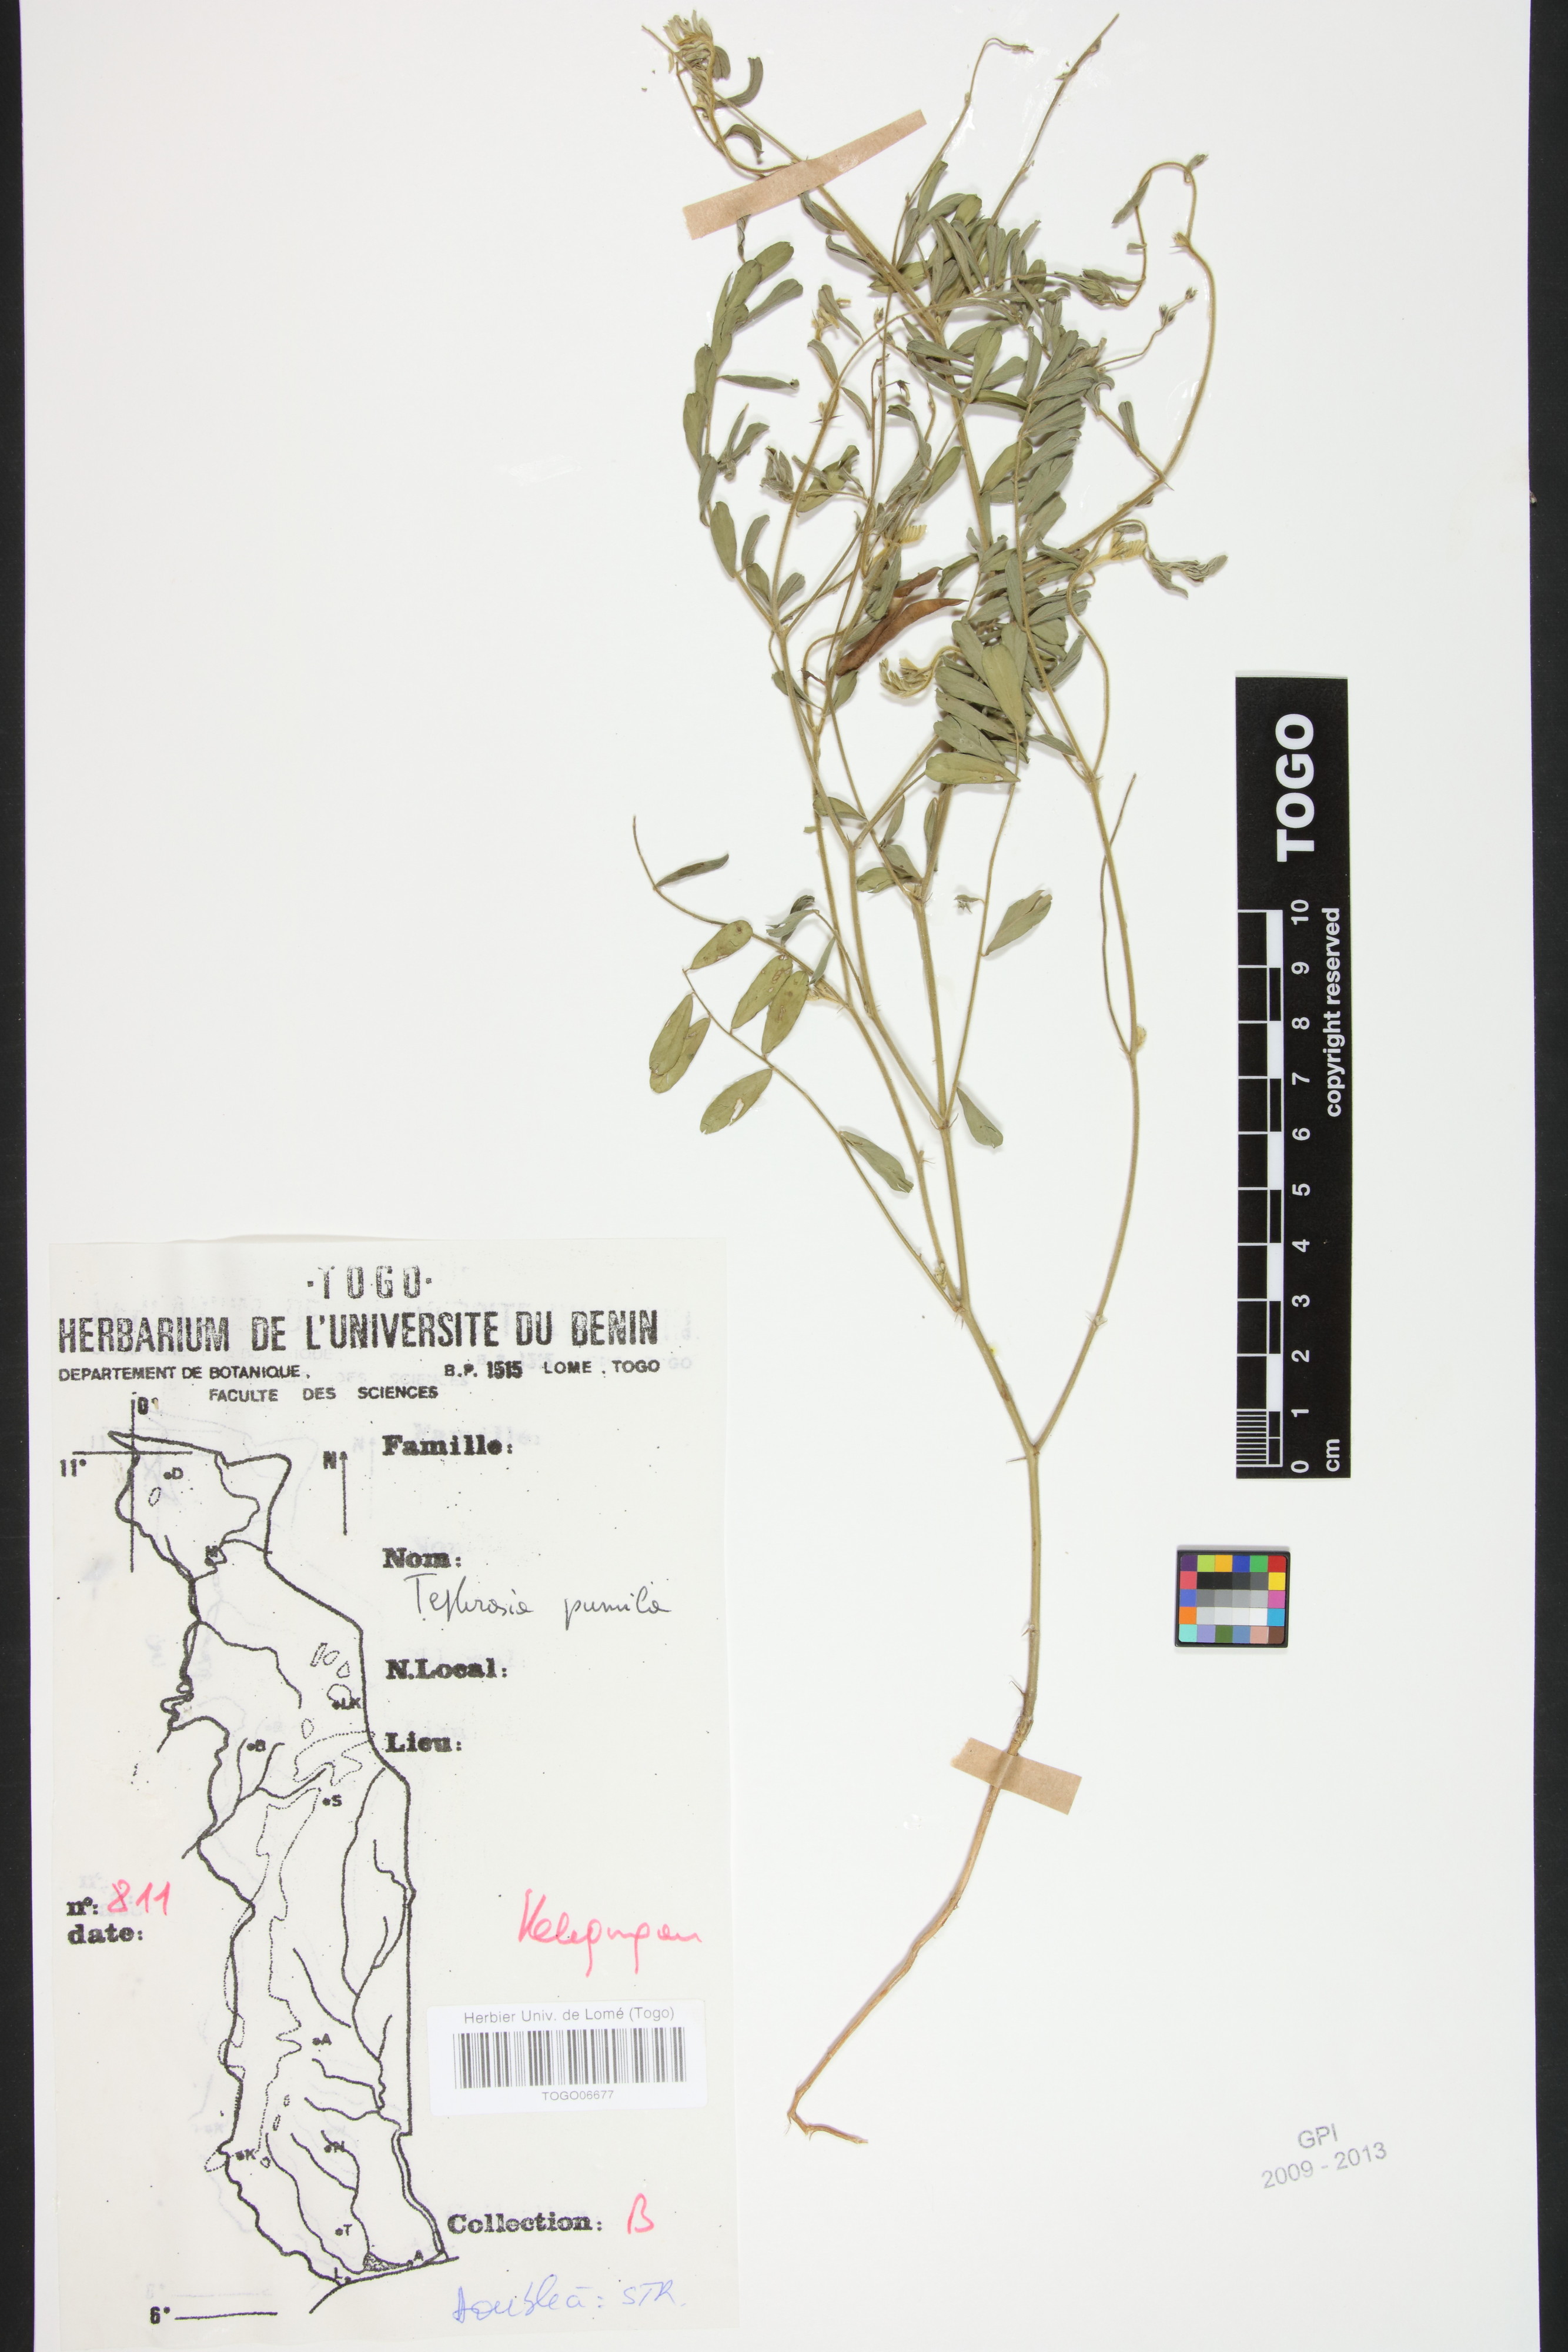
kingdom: Plantae
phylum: Tracheophyta
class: Magnoliopsida
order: Fabales
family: Fabaceae
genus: Tephrosia
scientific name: Tephrosia pumila
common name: Indigo sauvage
